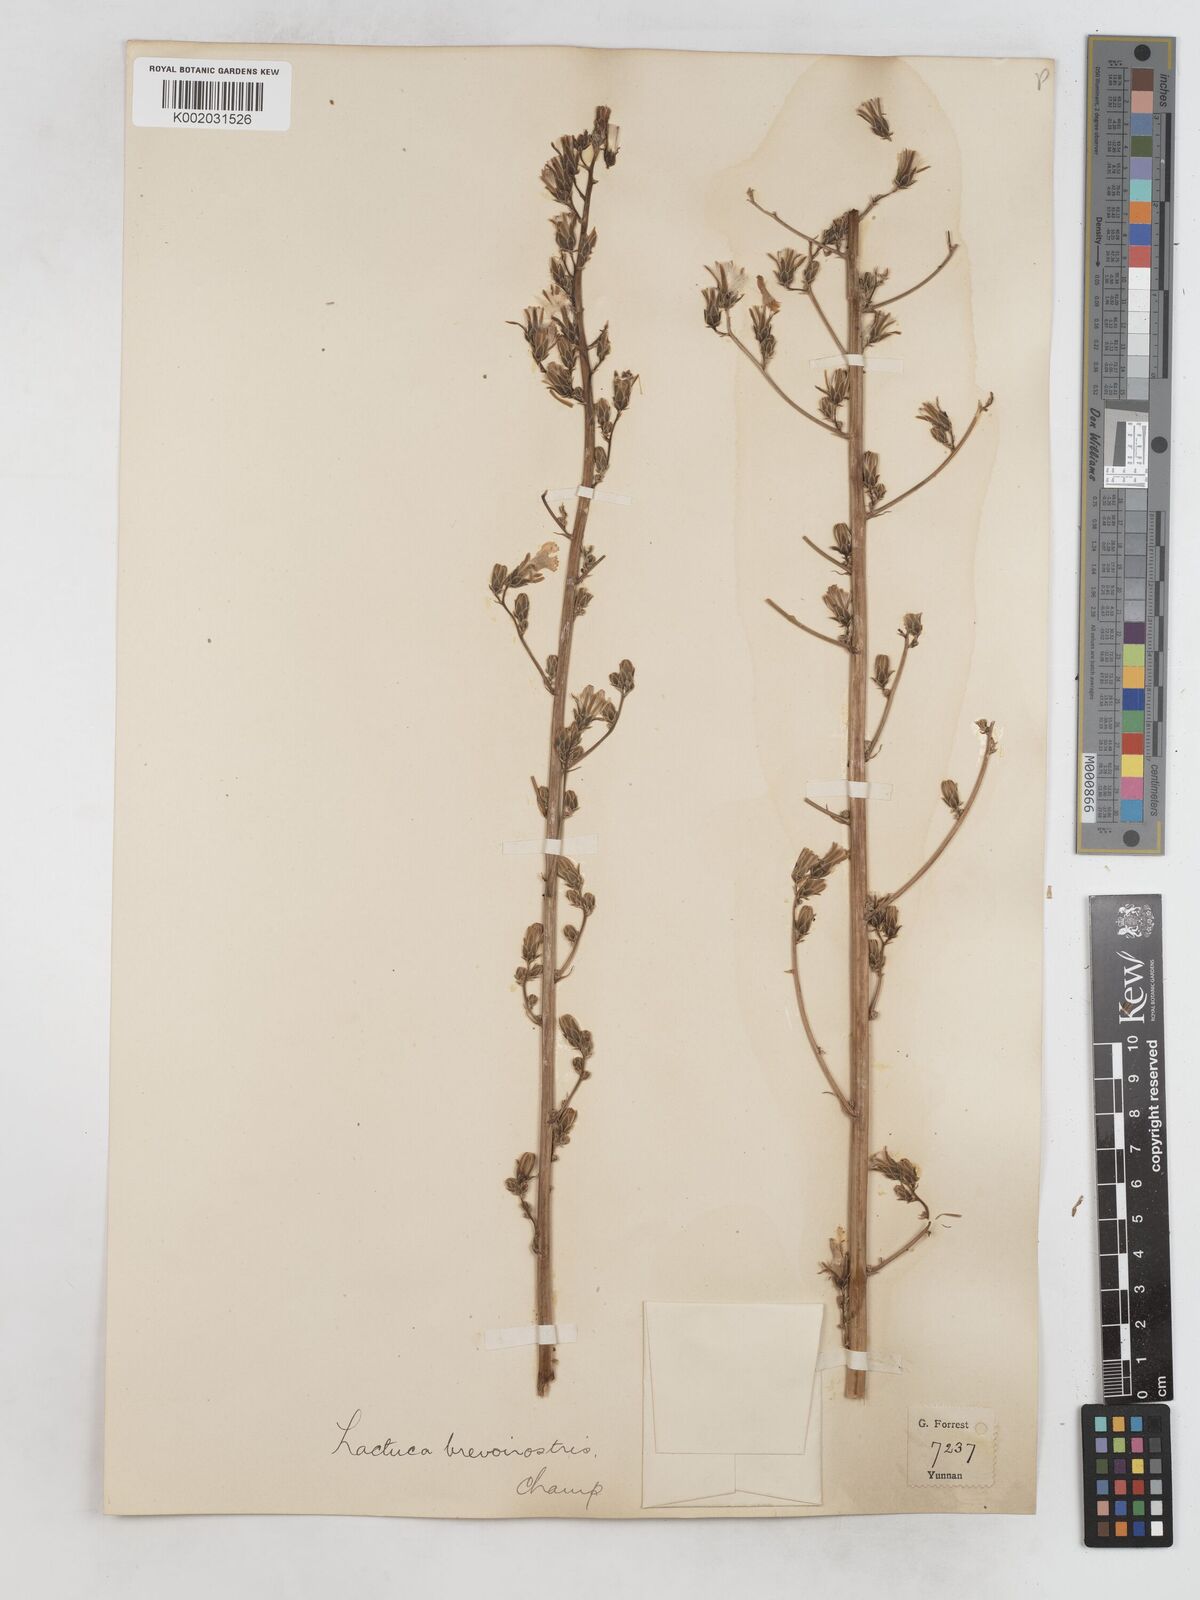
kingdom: Plantae
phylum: Tracheophyta
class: Magnoliopsida
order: Asterales
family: Asteraceae
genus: Lactuca
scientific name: Lactuca
